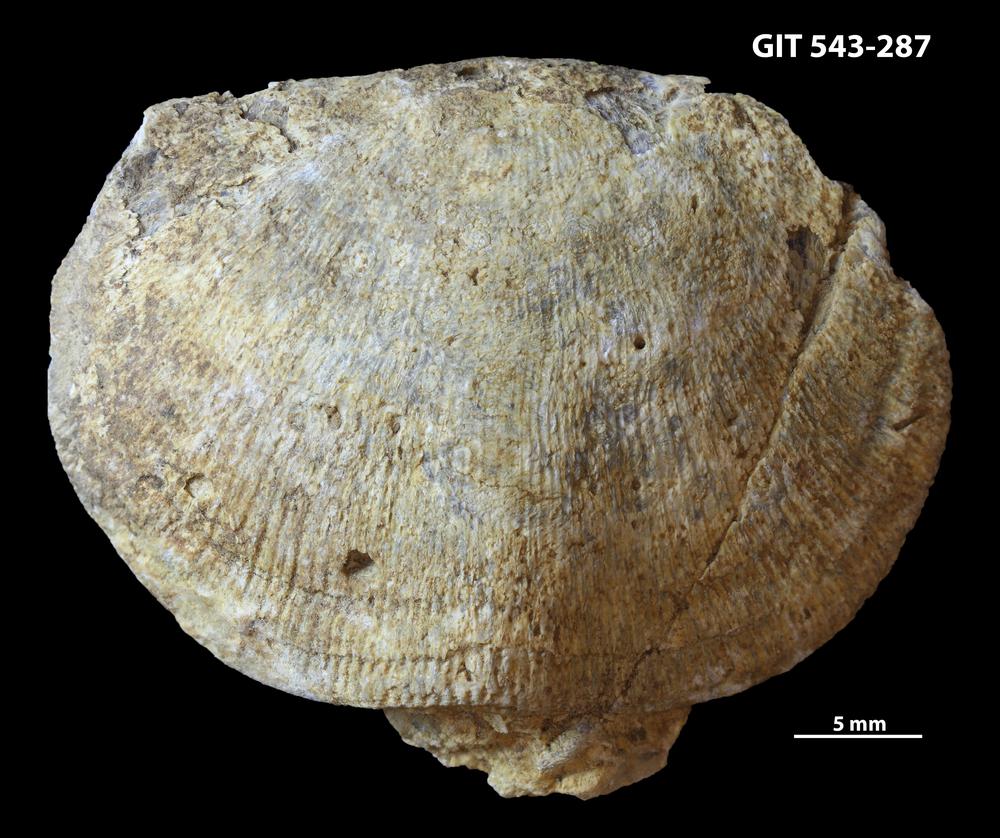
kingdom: Animalia
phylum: Brachiopoda
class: Rhynchonellata
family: Clitambonitidae
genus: Ilmarinia
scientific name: Ilmarinia
